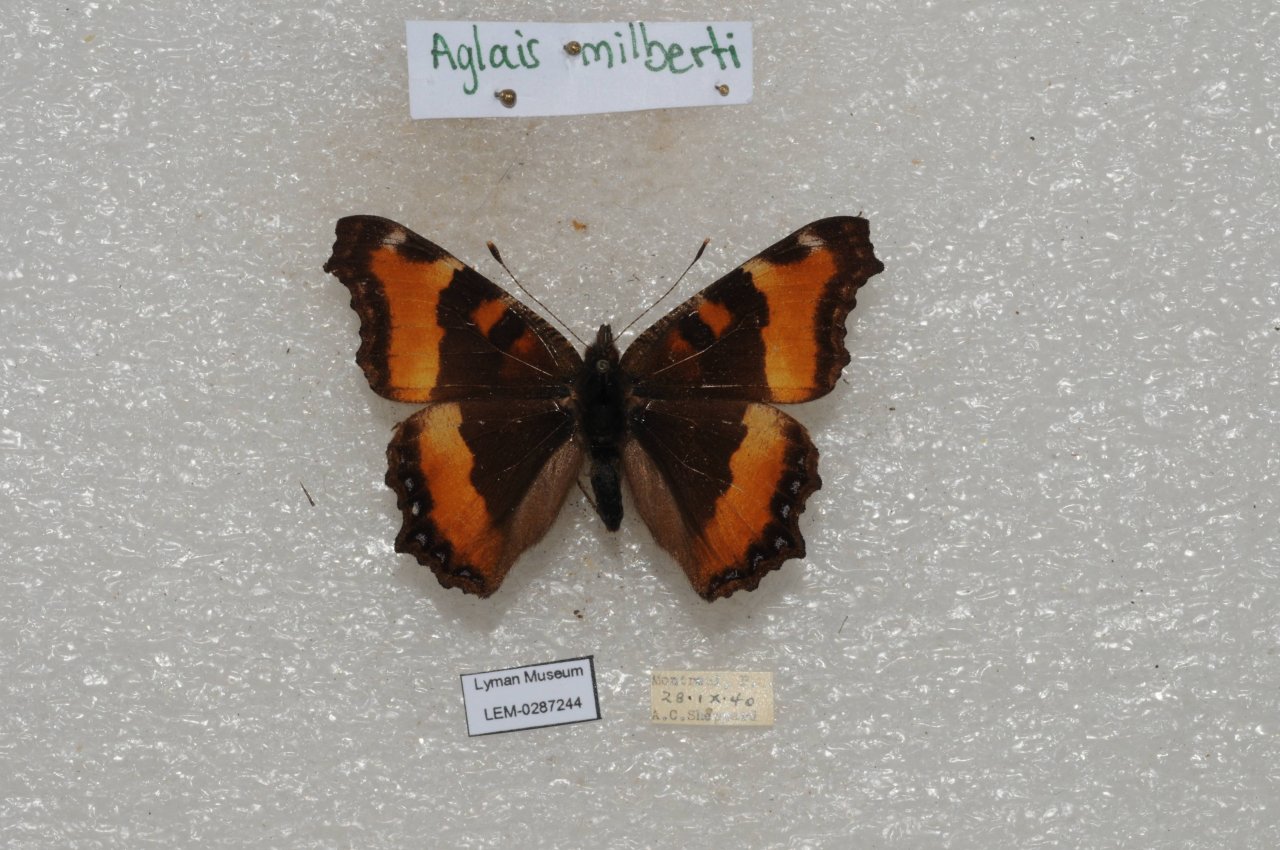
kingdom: Animalia
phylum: Arthropoda
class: Insecta
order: Lepidoptera
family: Nymphalidae
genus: Aglais
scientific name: Aglais milberti
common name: Milbert's Tortoiseshell
